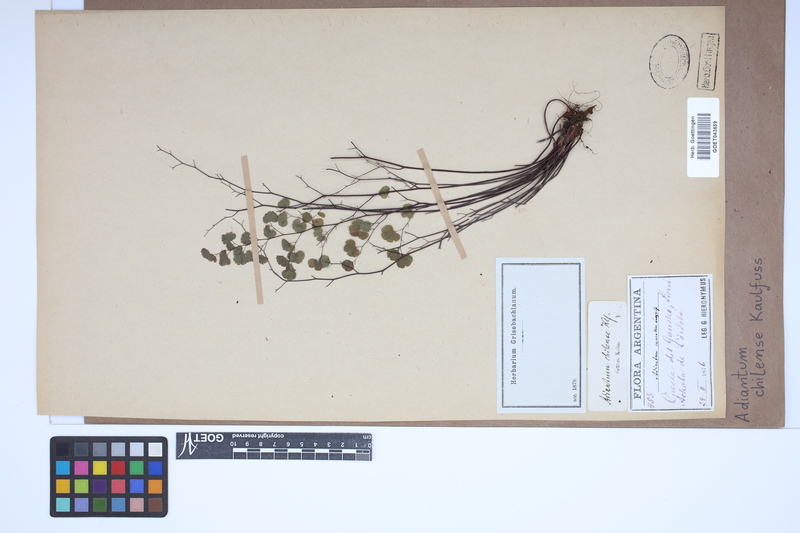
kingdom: Plantae
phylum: Tracheophyta
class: Polypodiopsida
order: Polypodiales
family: Pteridaceae
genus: Adiantum
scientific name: Adiantum chilense
